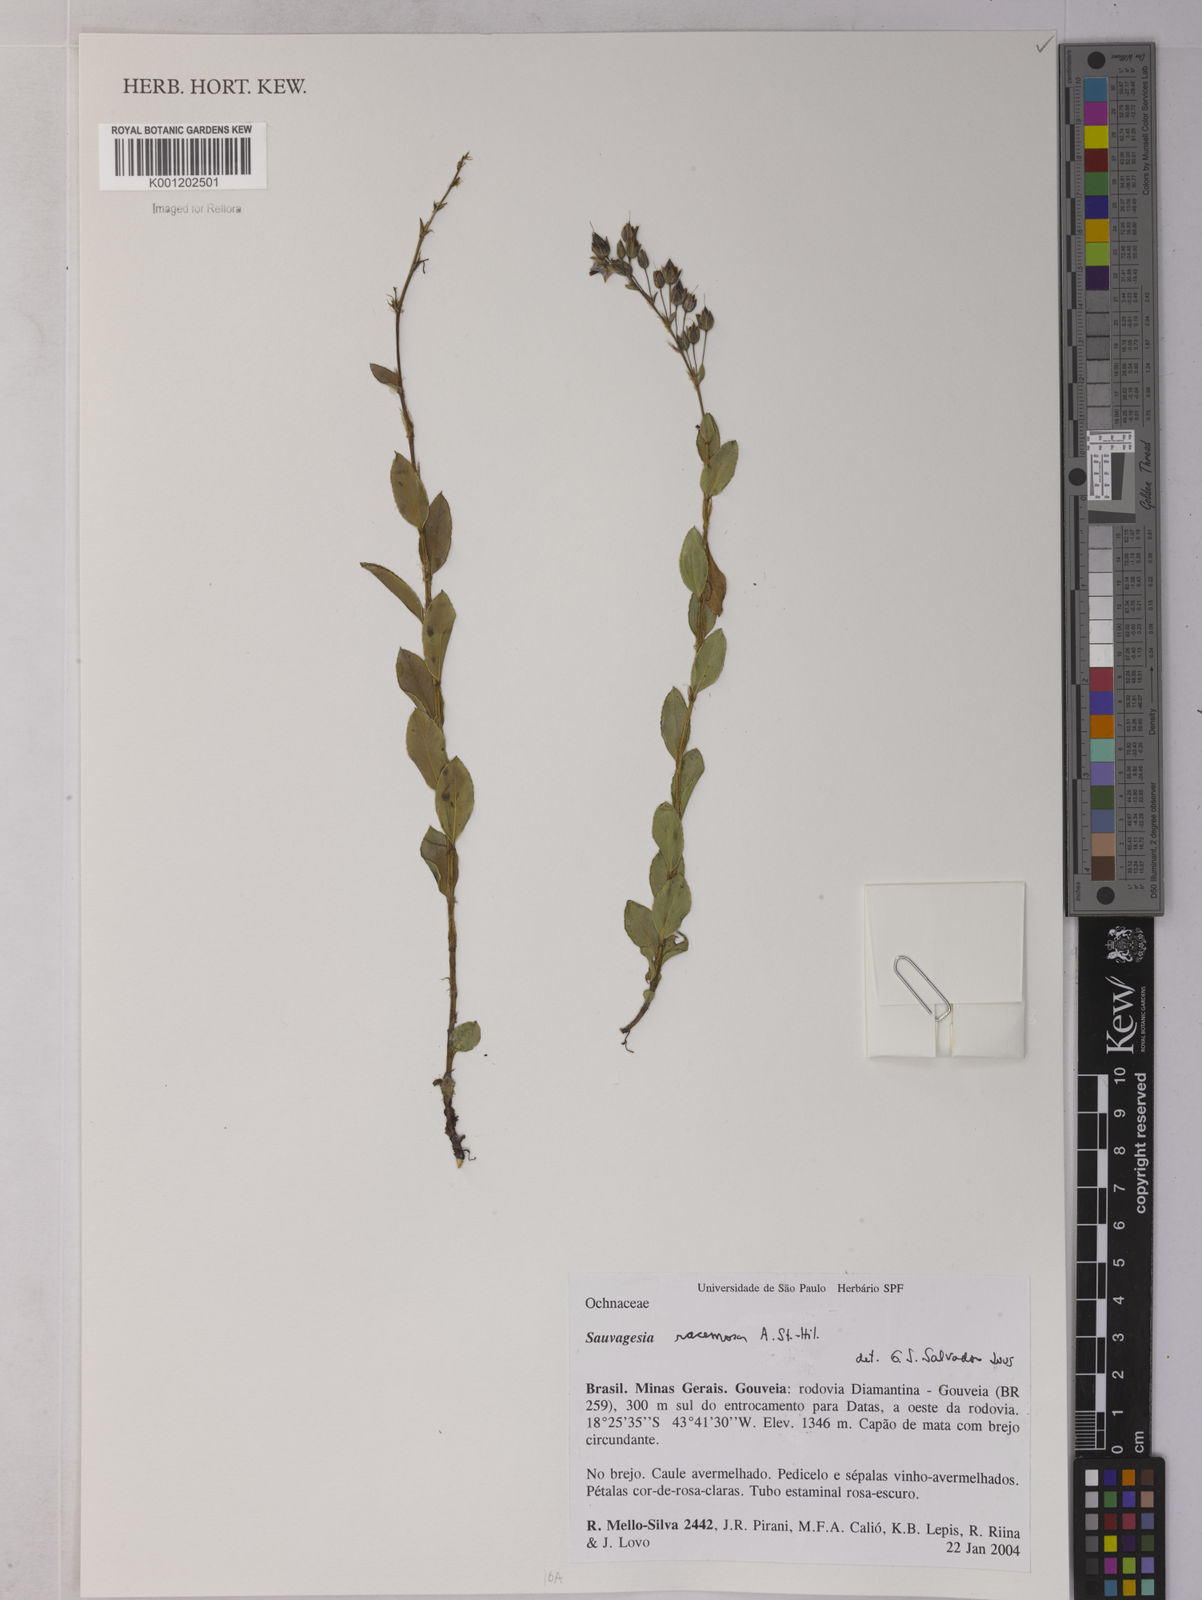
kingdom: Plantae
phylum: Tracheophyta
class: Magnoliopsida
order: Malpighiales
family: Ochnaceae
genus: Sauvagesia
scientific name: Sauvagesia racemosa
